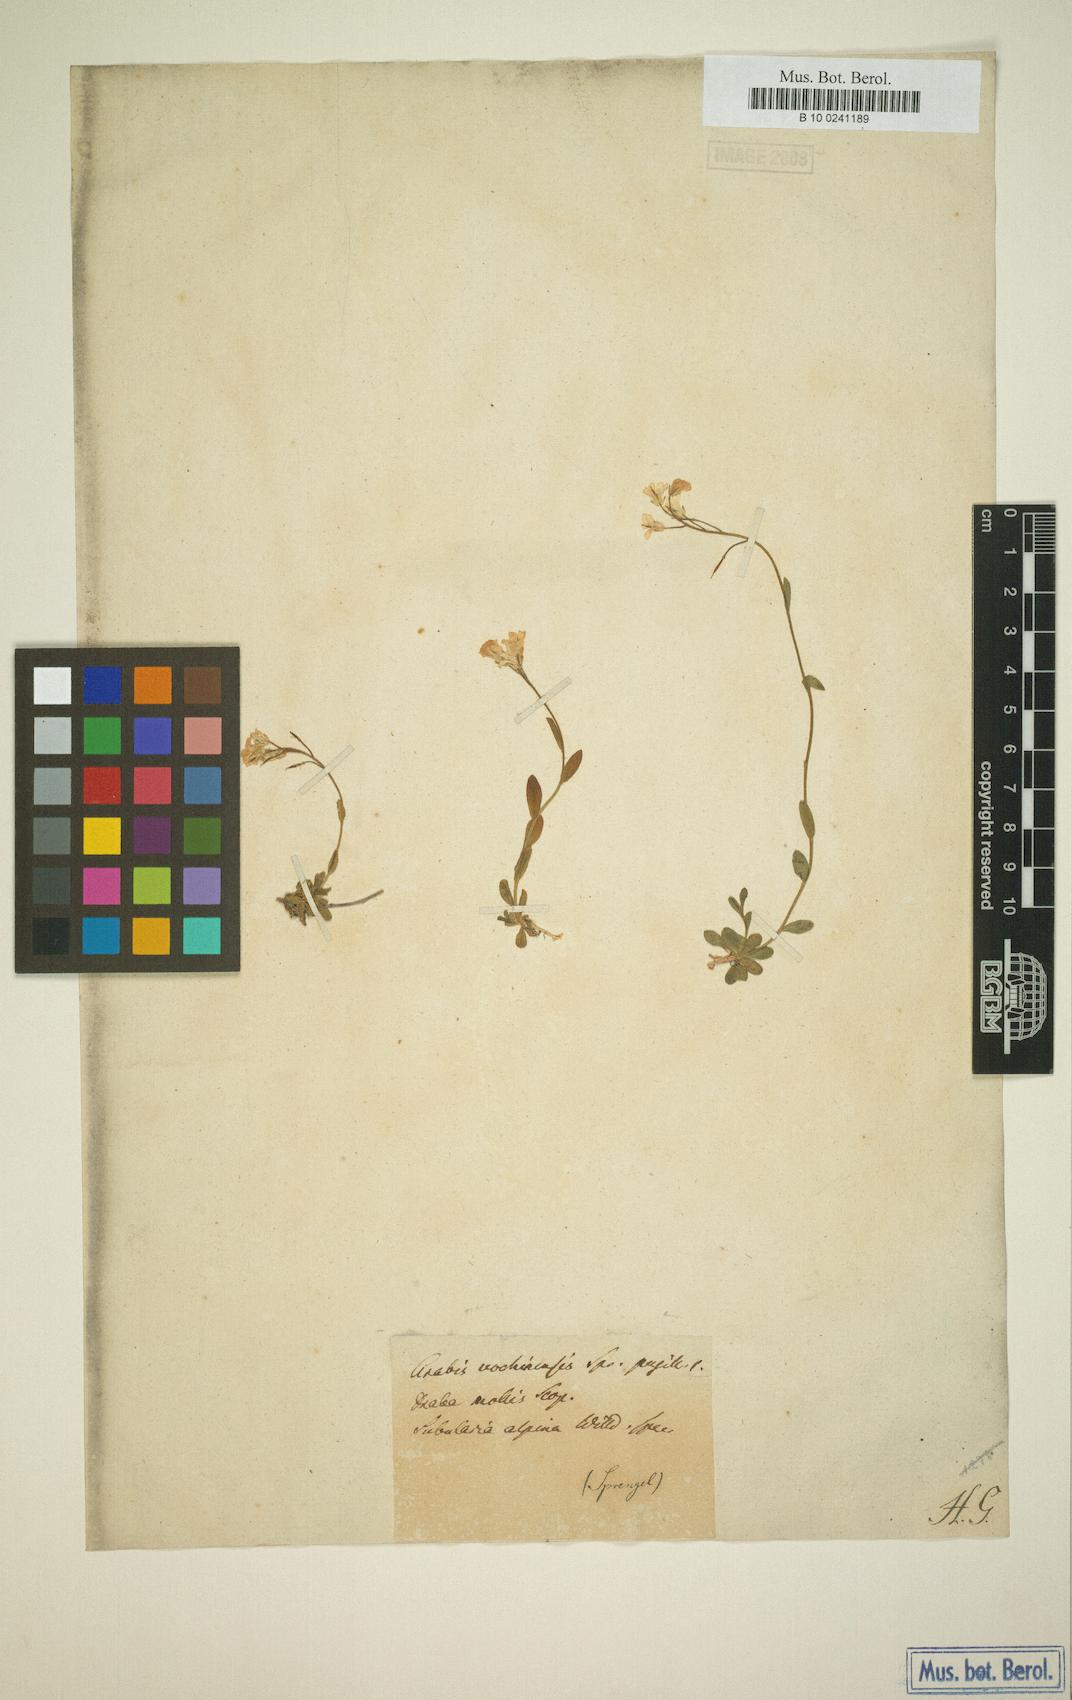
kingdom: Plantae
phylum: Tracheophyta
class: Magnoliopsida
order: Brassicales
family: Brassicaceae
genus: Arabis
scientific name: Arabis vochinensis
